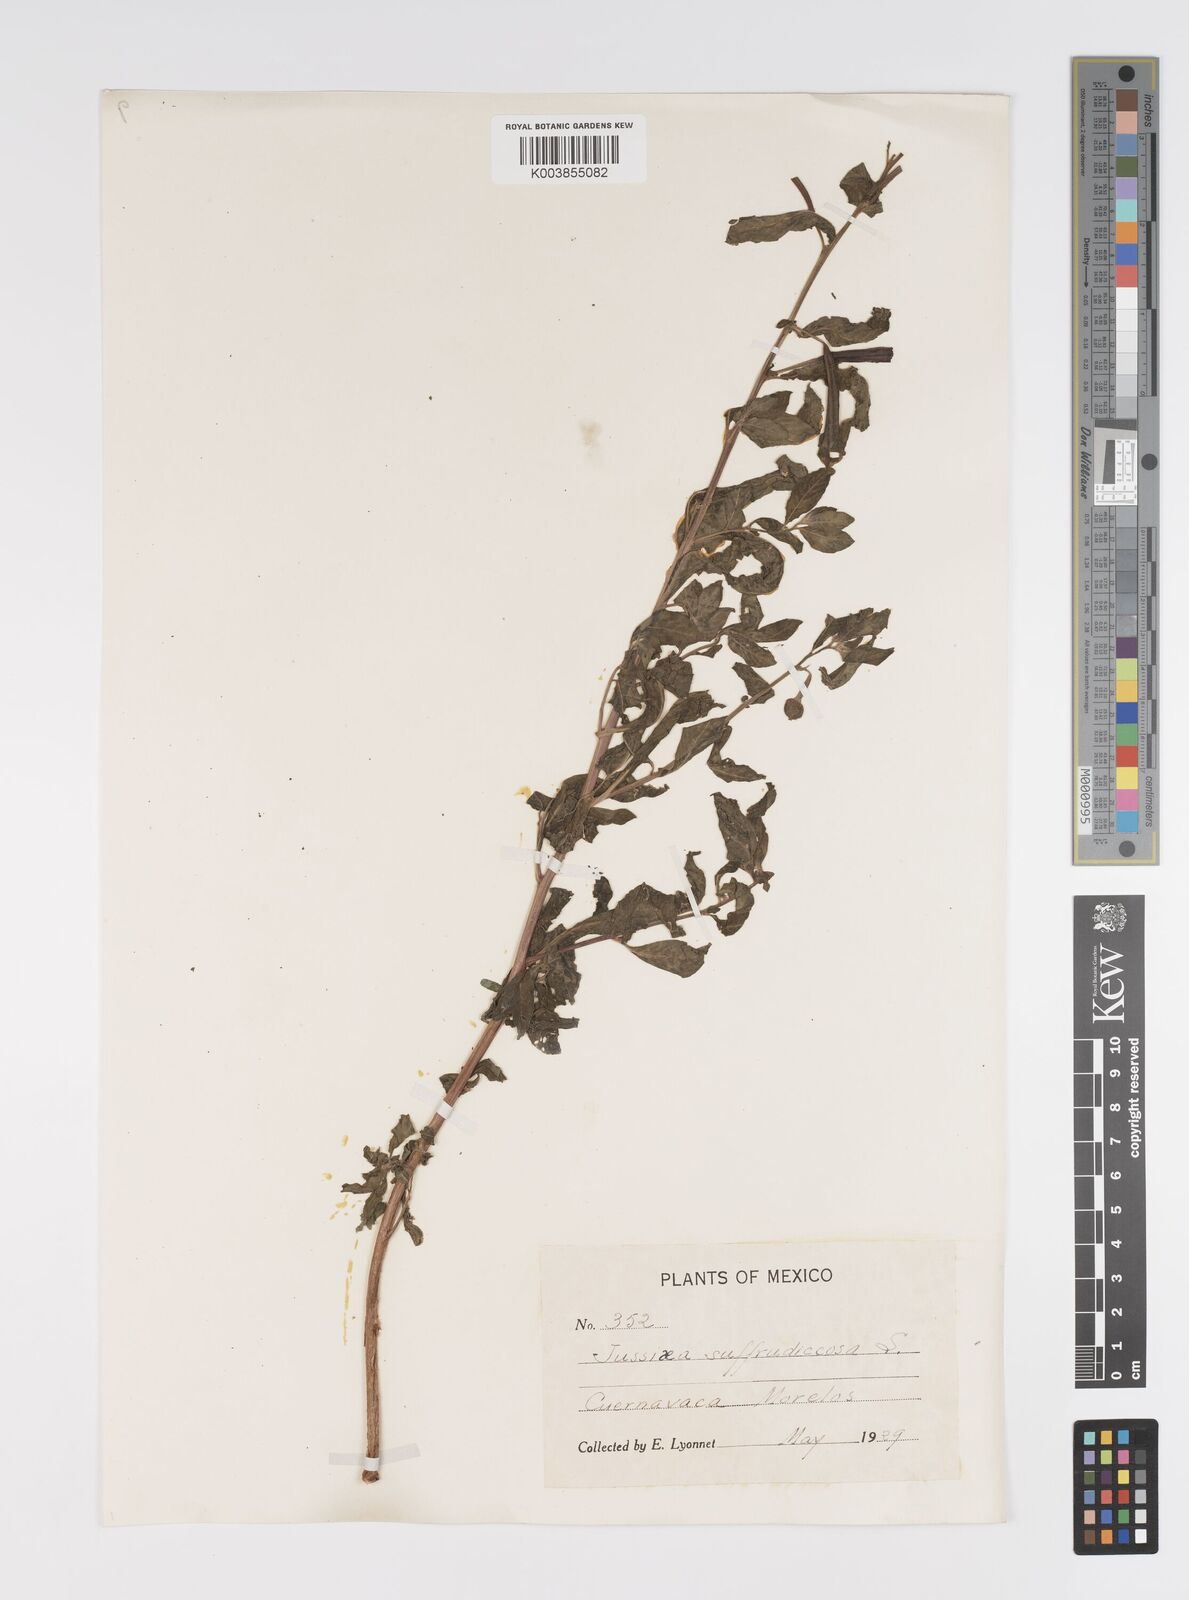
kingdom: Plantae
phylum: Tracheophyta
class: Magnoliopsida
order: Myrtales
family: Onagraceae
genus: Ludwigia
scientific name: Ludwigia octovalvis
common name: Water-primrose
